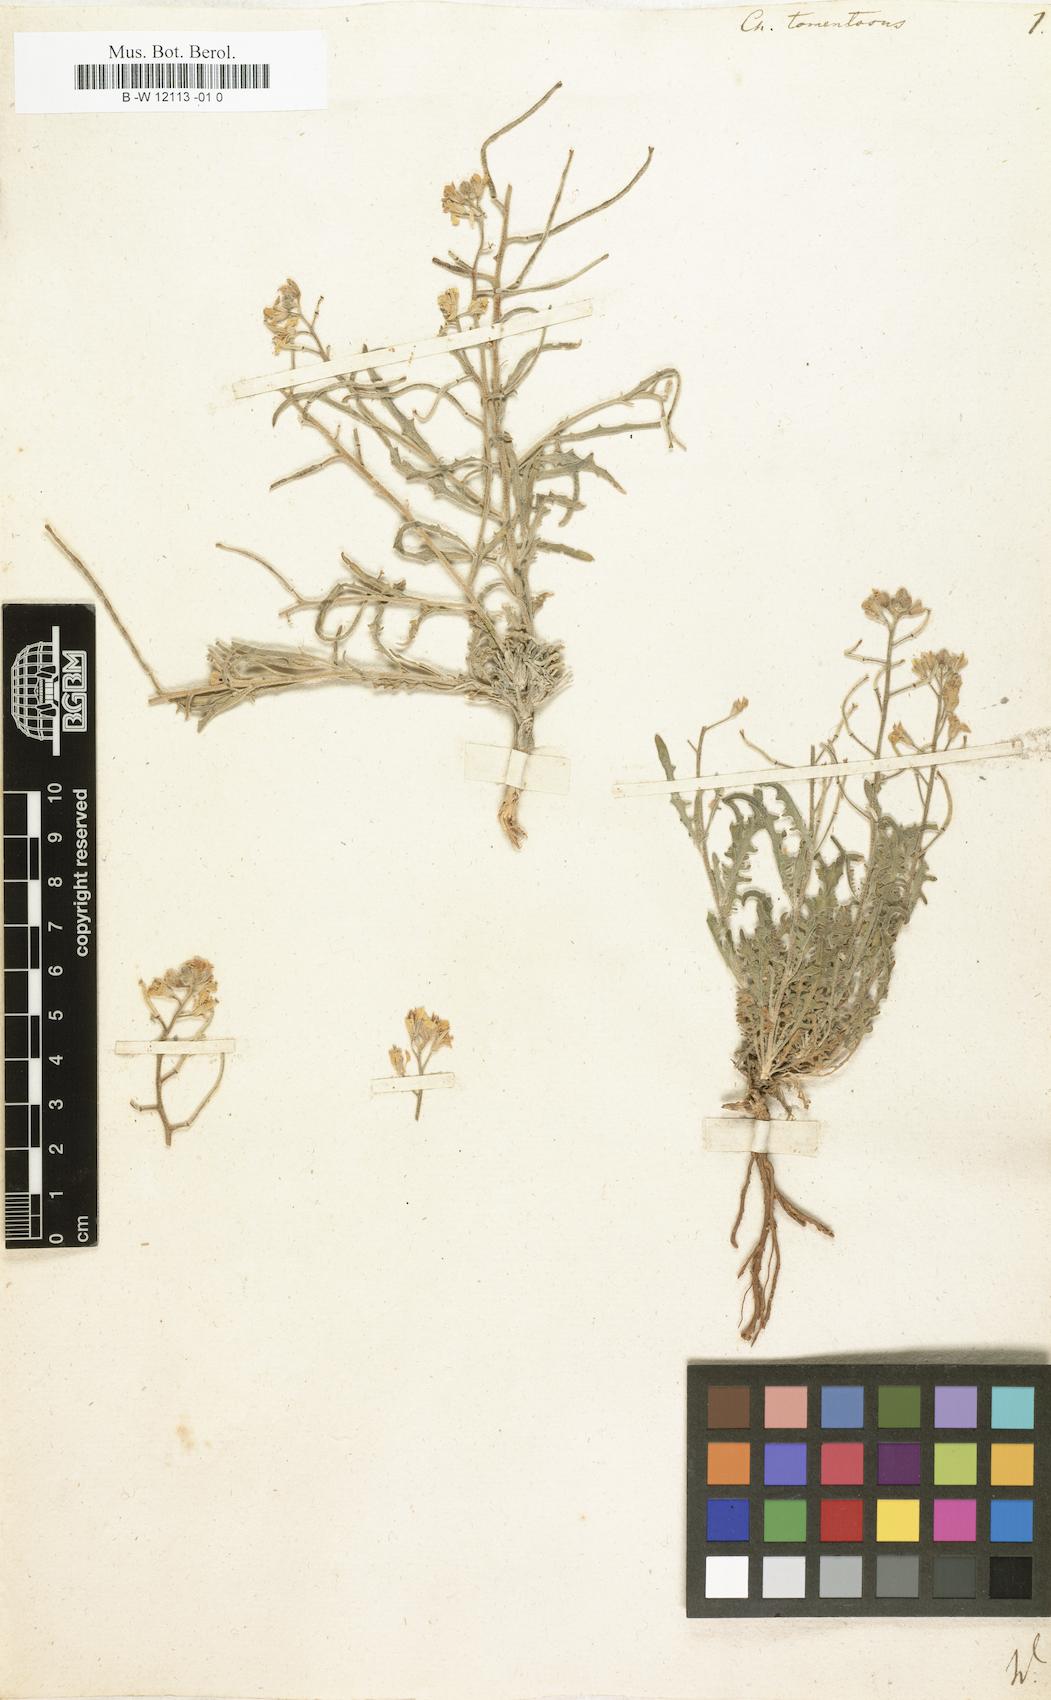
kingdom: Plantae
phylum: Tracheophyta
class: Magnoliopsida
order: Brassicales
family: Brassicaceae
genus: Sterigmostemum
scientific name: Sterigmostemum caspicum
